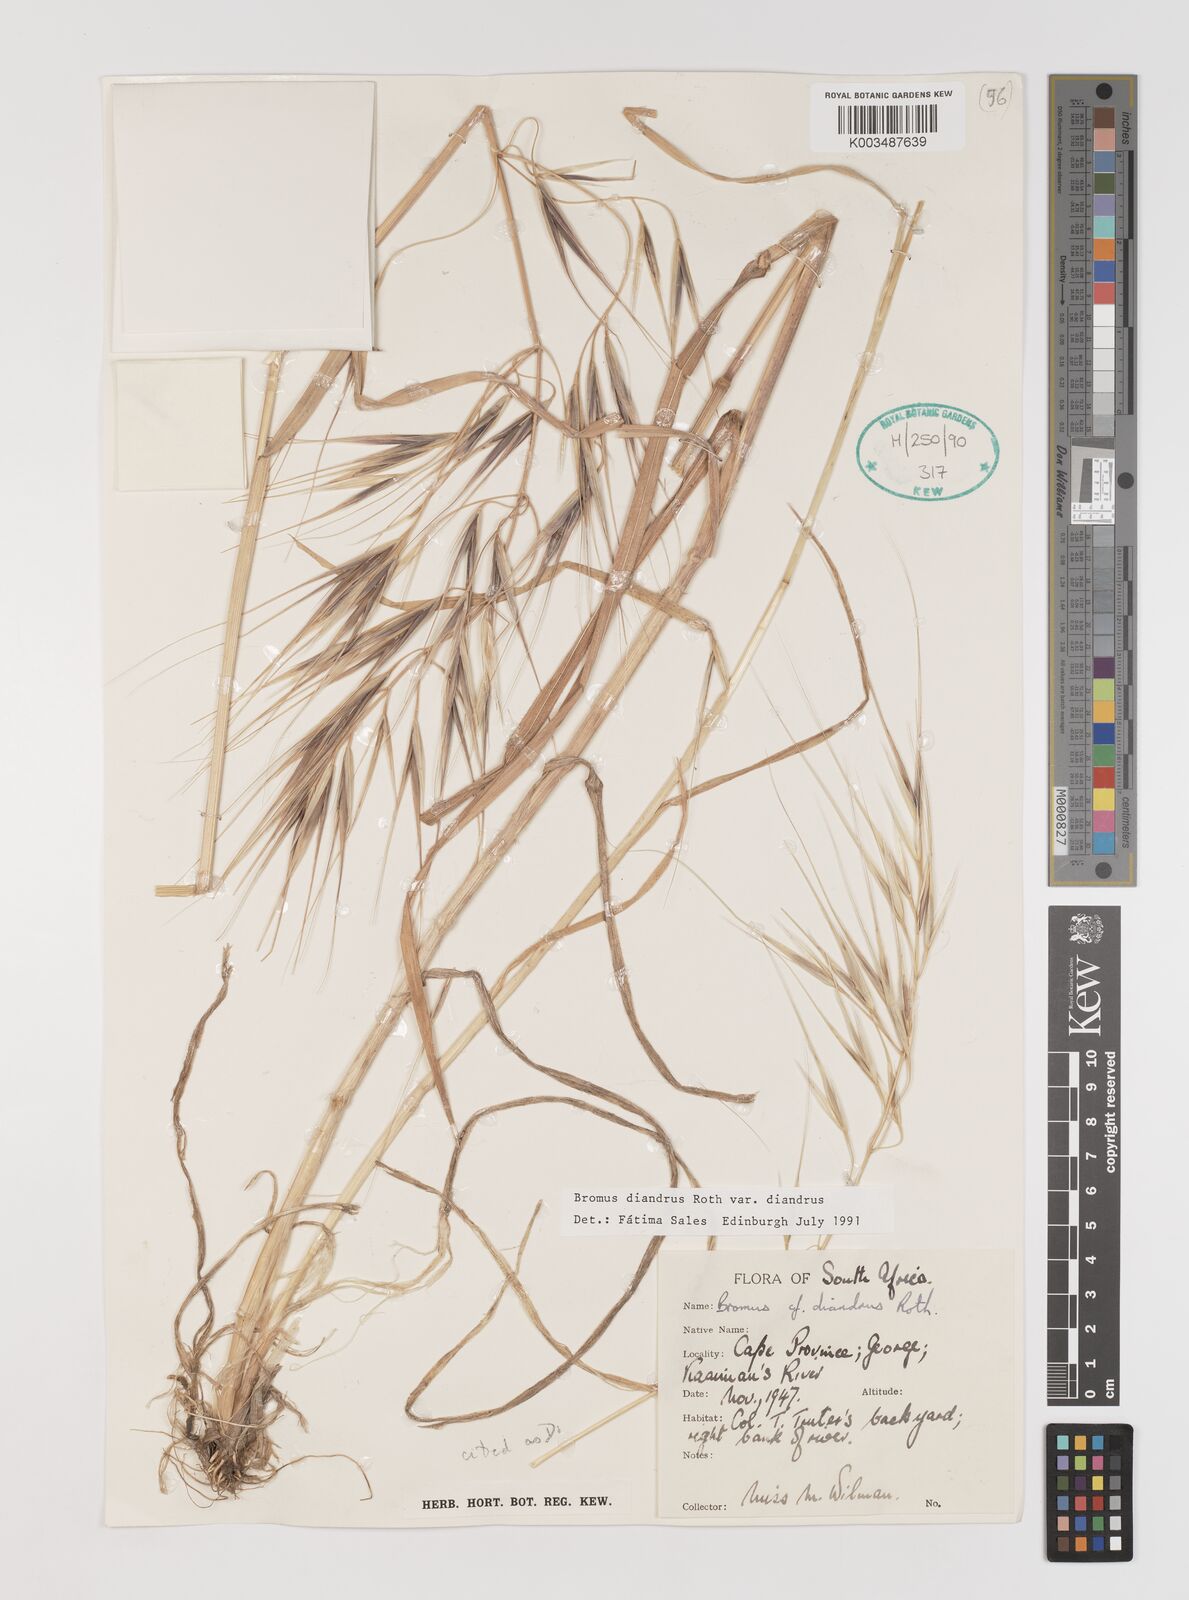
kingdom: Plantae
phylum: Tracheophyta
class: Liliopsida
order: Poales
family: Poaceae
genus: Bromus
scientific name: Bromus diandrus
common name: Ripgut brome
